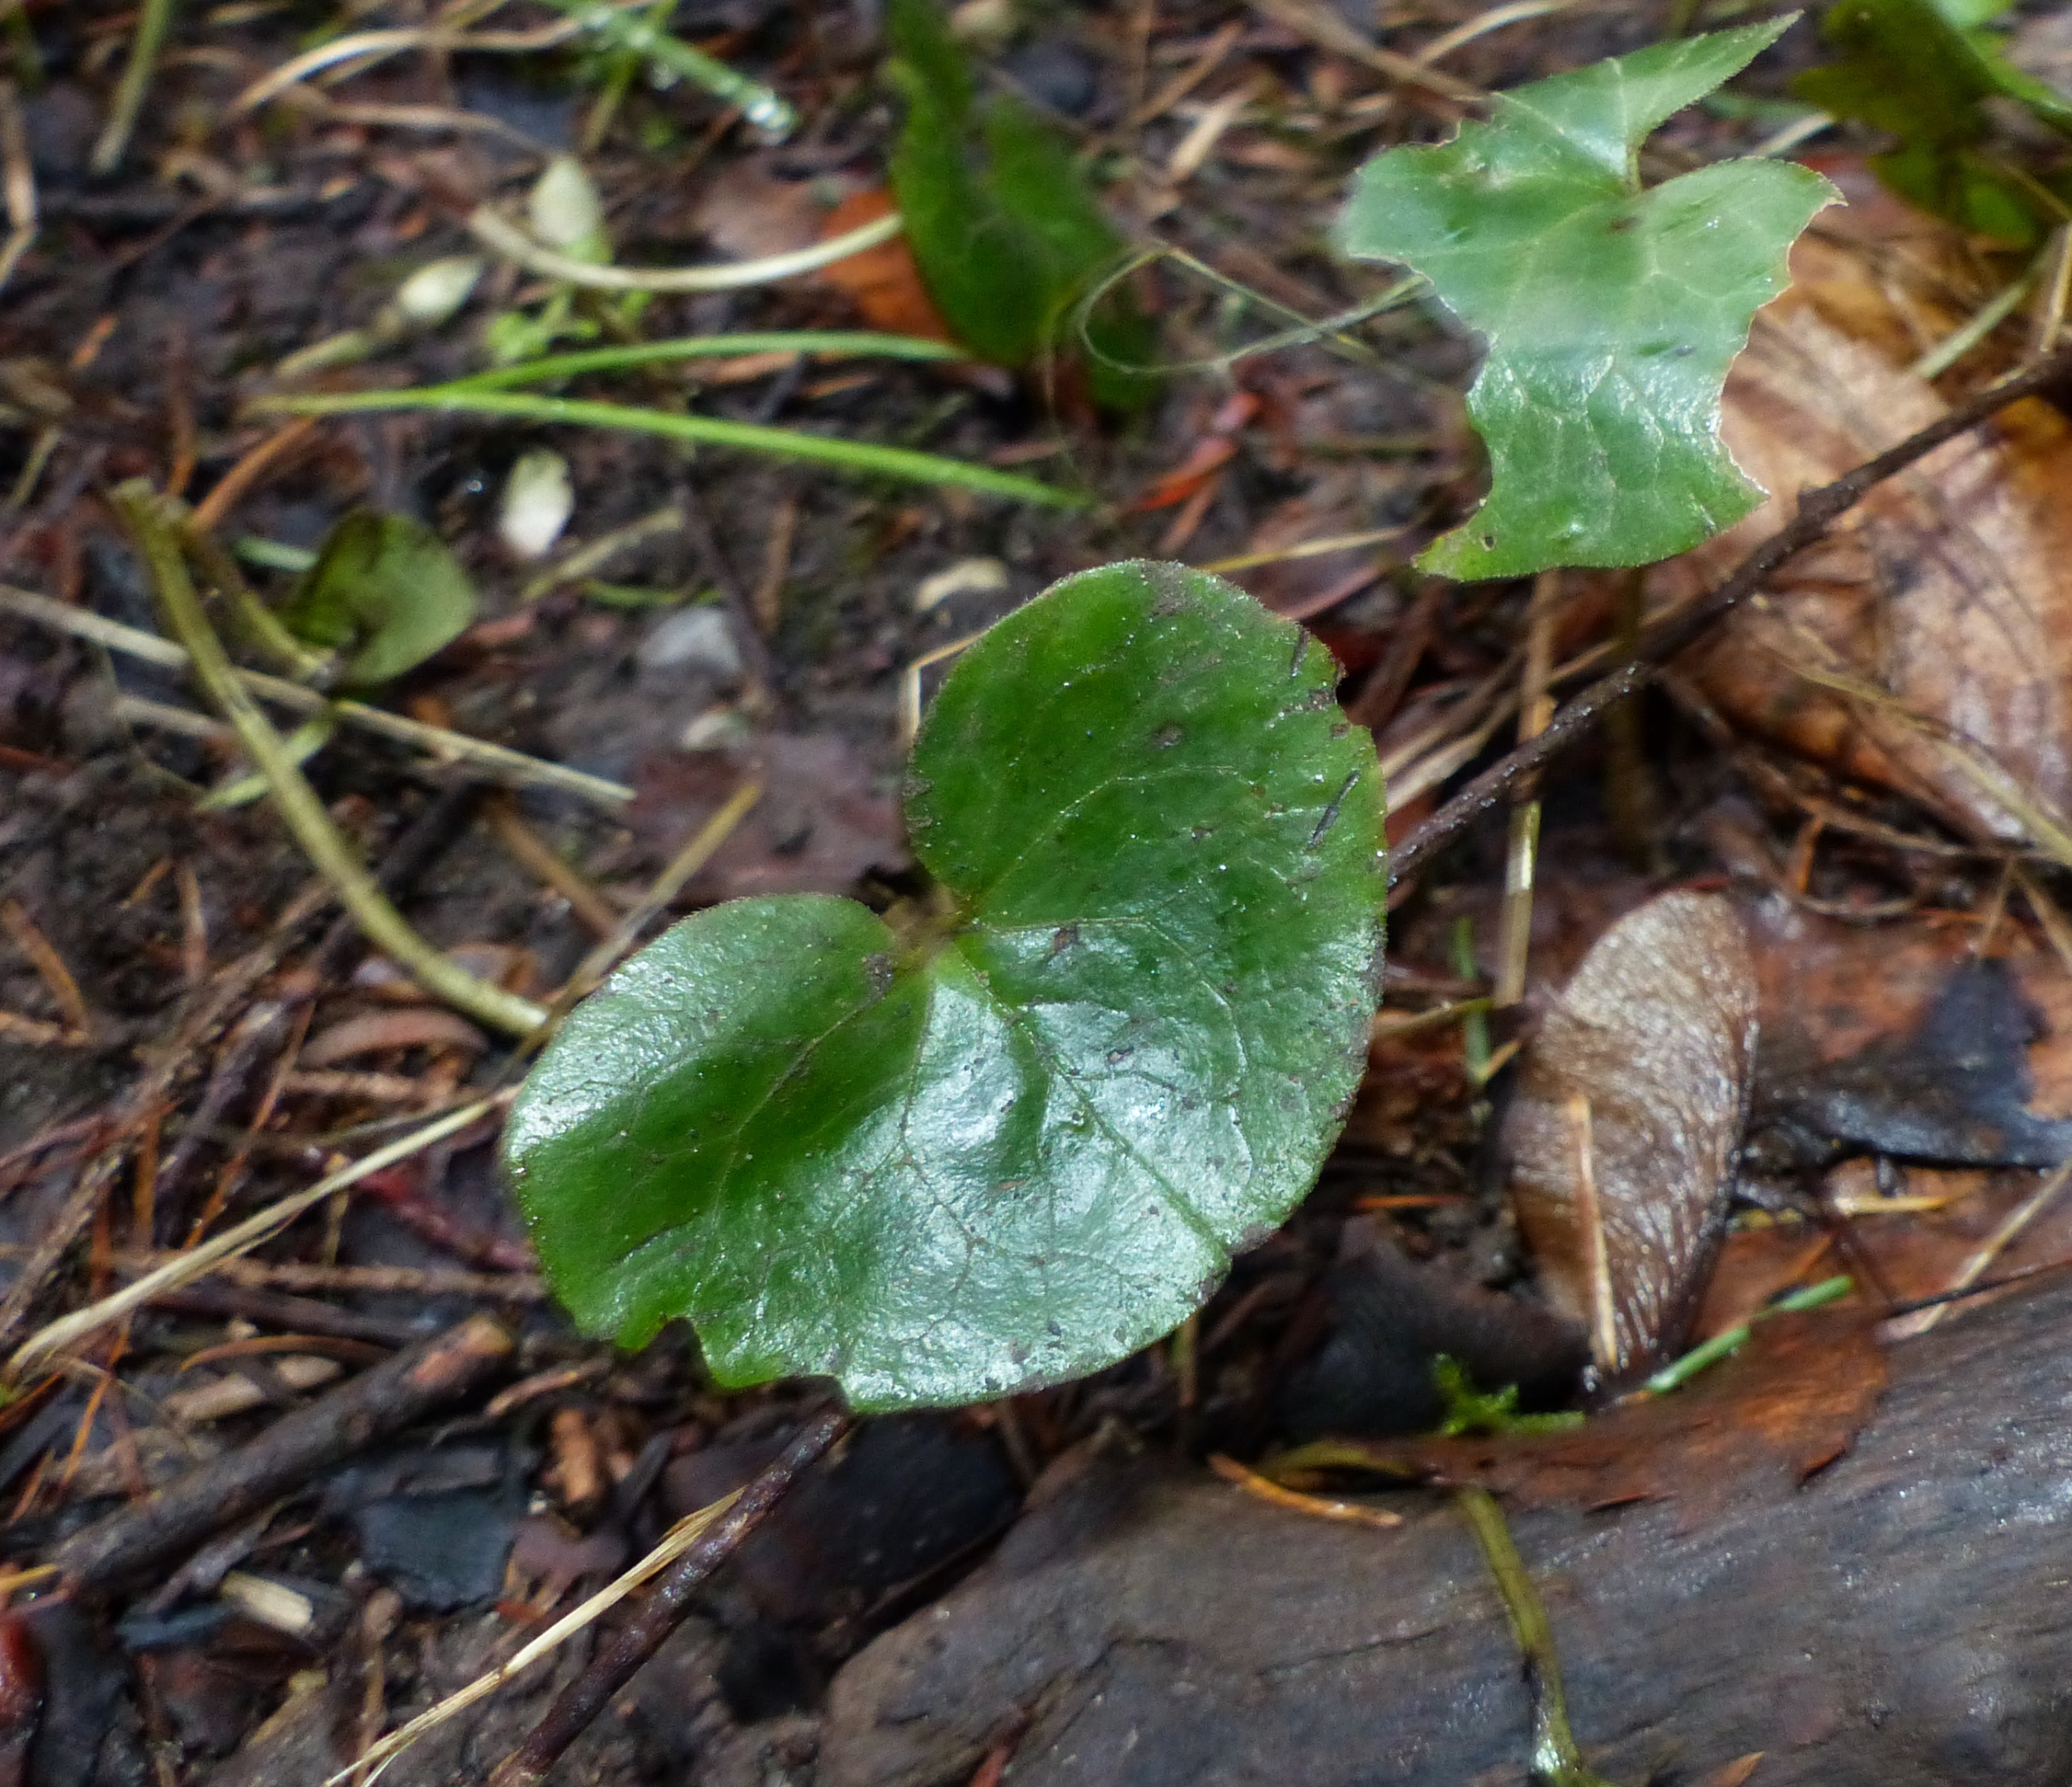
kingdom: Plantae
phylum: Tracheophyta
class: Magnoliopsida
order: Piperales
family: Aristolochiaceae
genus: Asarum
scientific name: Asarum europaeum
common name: Hasselurt
